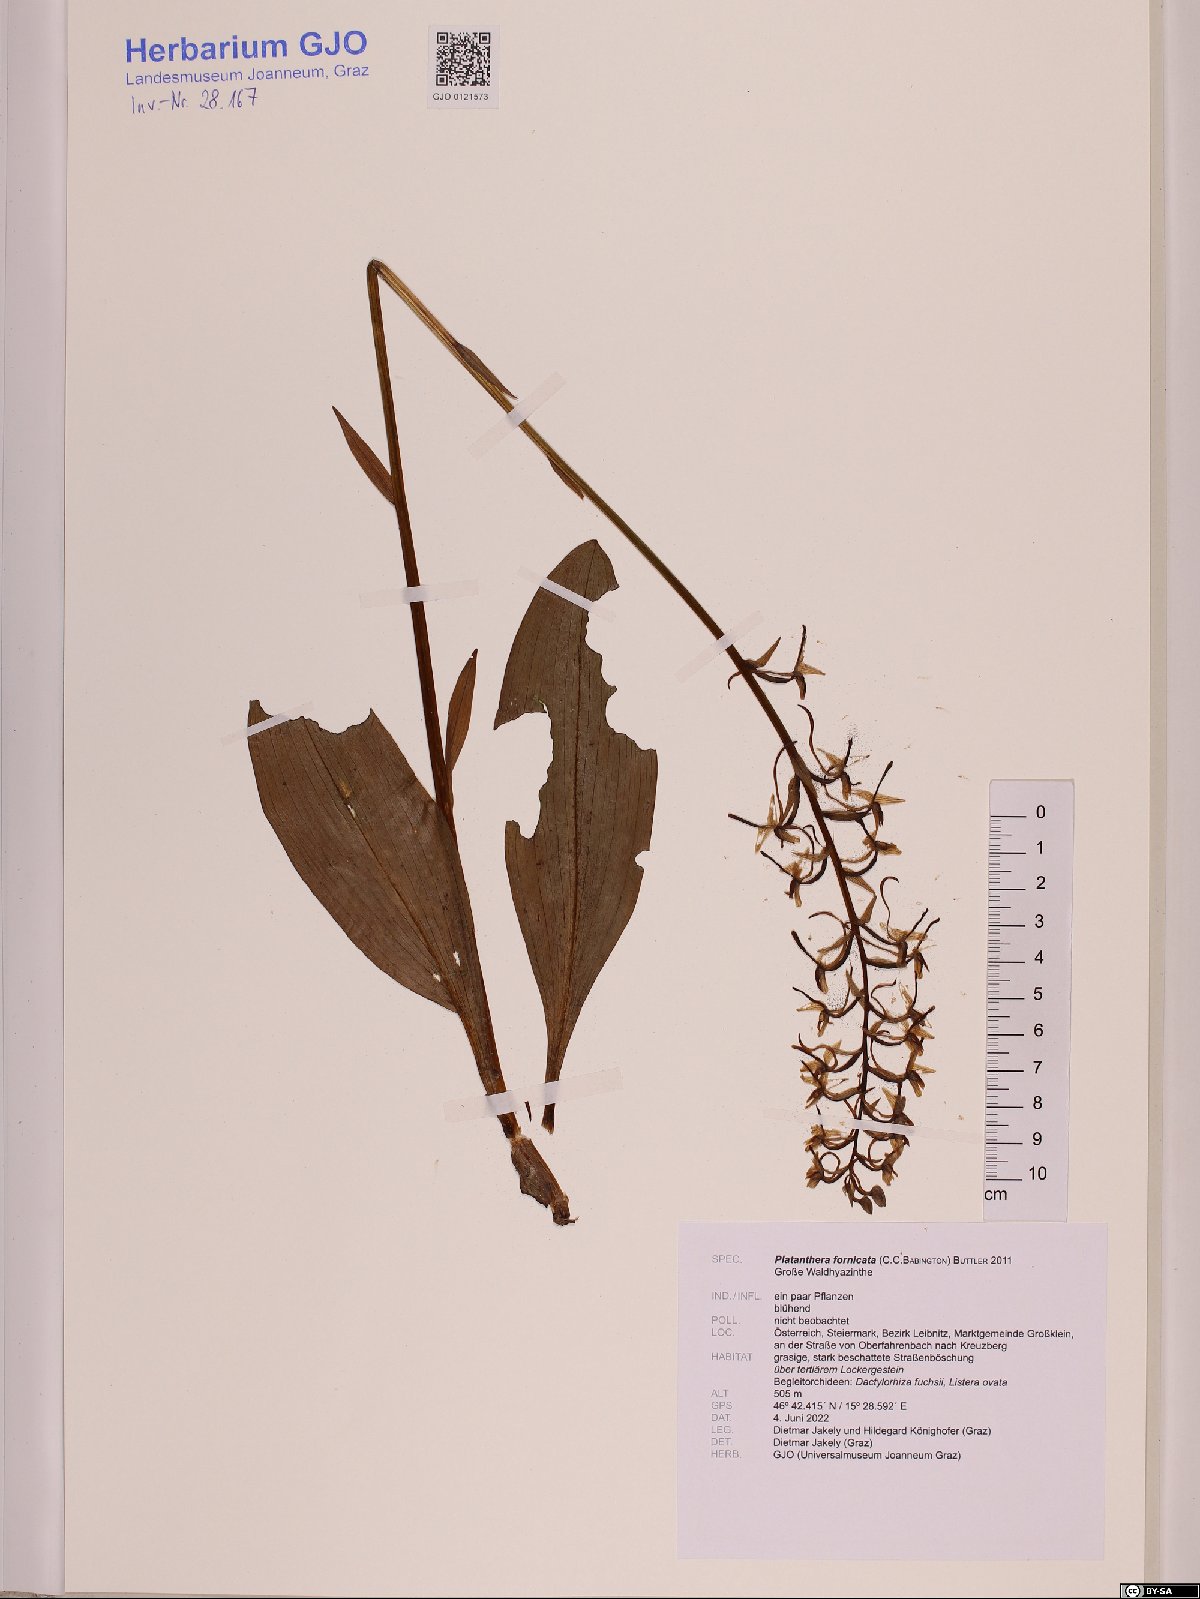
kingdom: Plantae
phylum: Tracheophyta
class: Liliopsida
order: Asparagales
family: Orchidaceae
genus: Platanthera
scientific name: Platanthera bifolia
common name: Lesser butterfly-orchid
